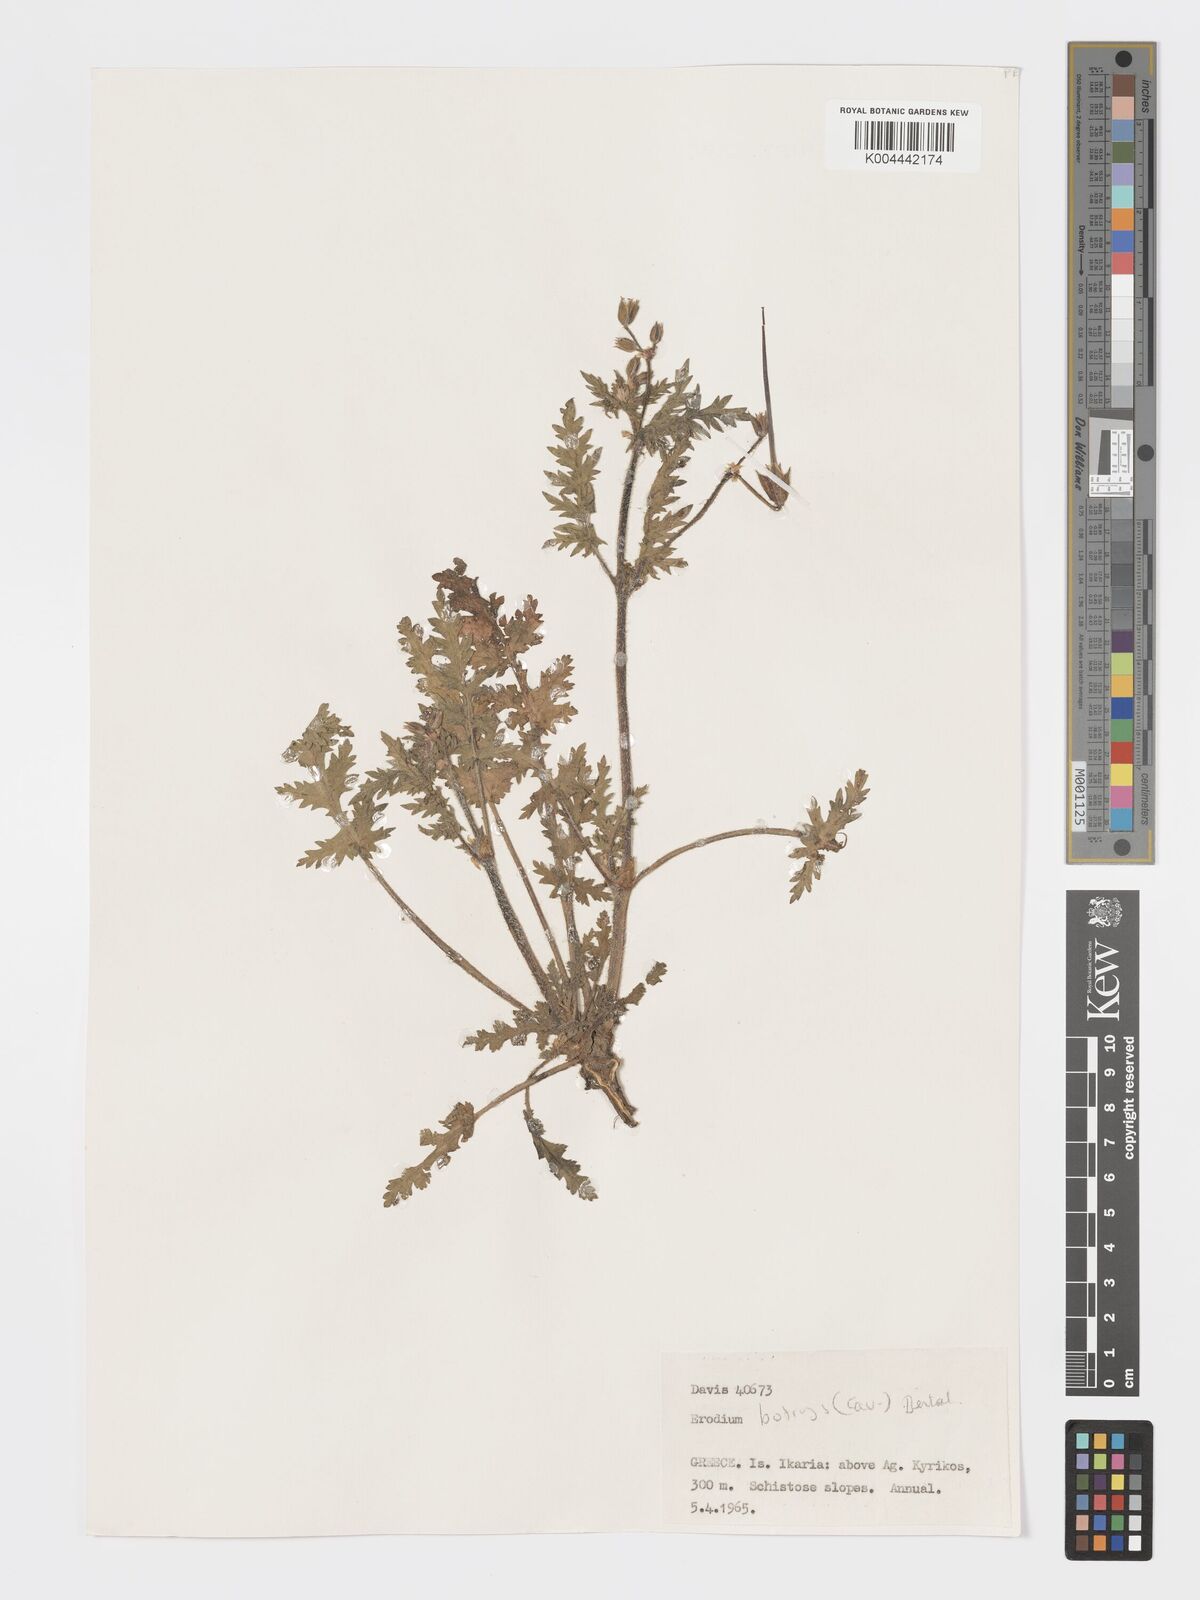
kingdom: Plantae
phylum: Tracheophyta
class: Magnoliopsida
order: Geraniales
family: Geraniaceae
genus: Erodium
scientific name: Erodium
